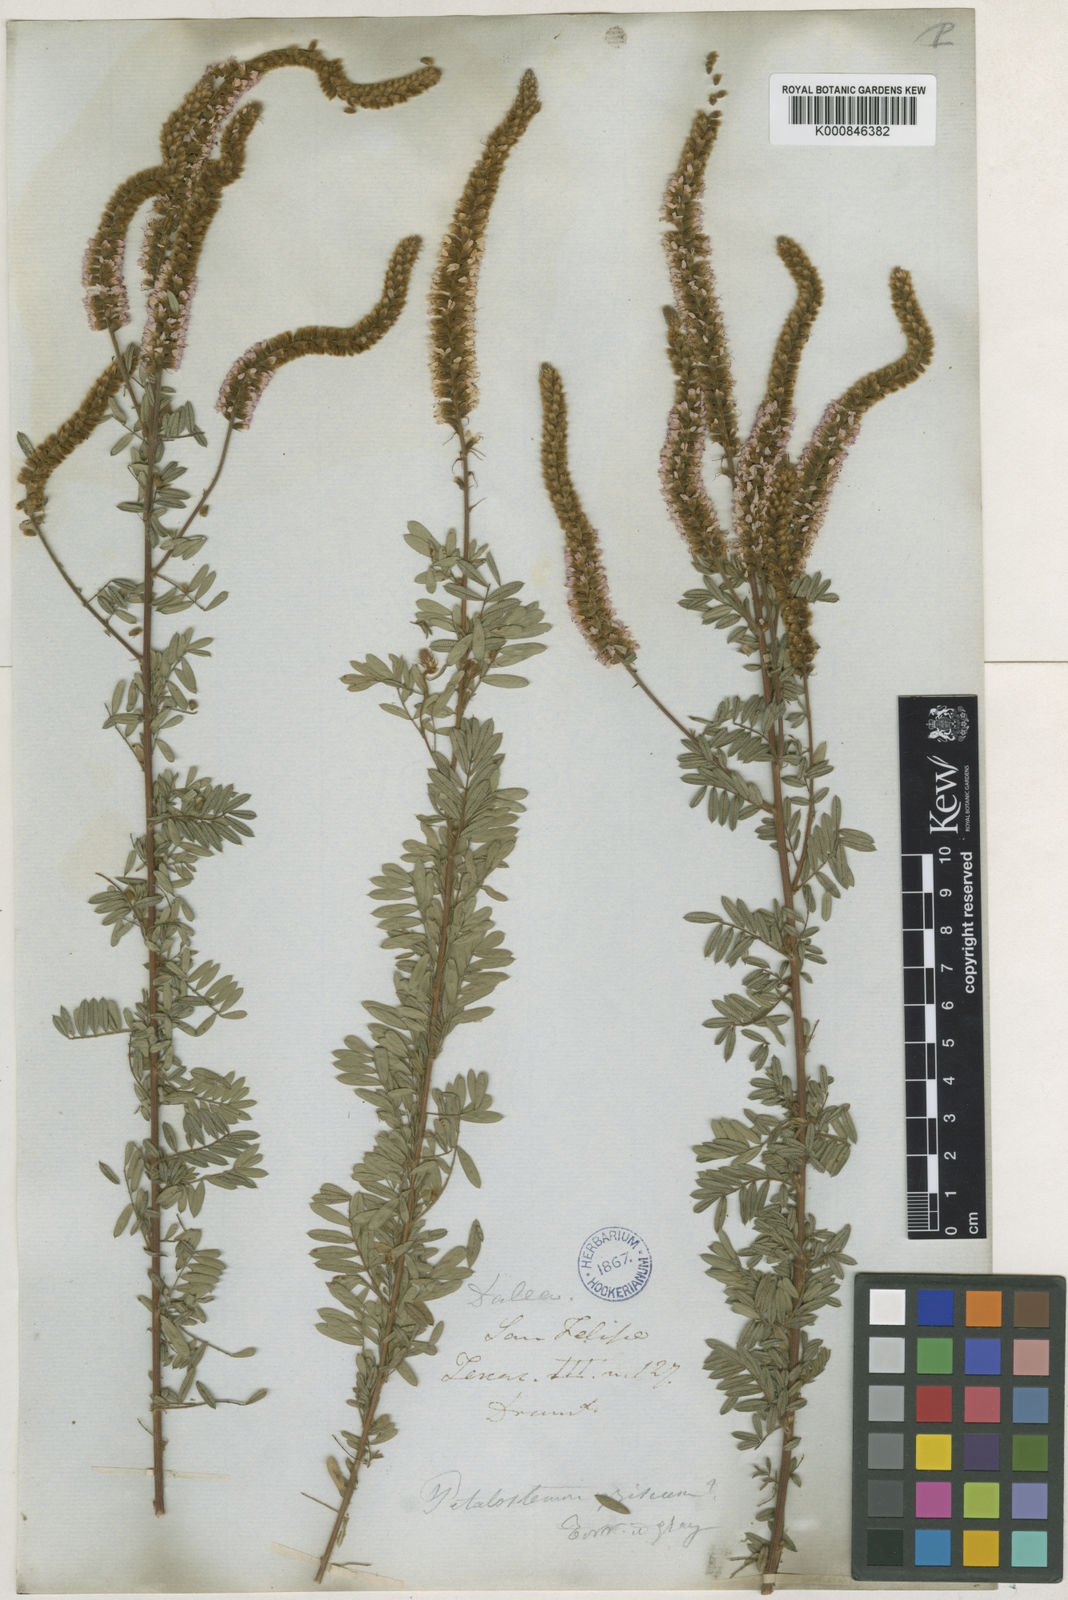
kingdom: Plantae
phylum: Tracheophyta
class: Magnoliopsida
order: Fabales
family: Fabaceae
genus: Dalea
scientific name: Dalea villosa
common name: Silky prairie-clover
